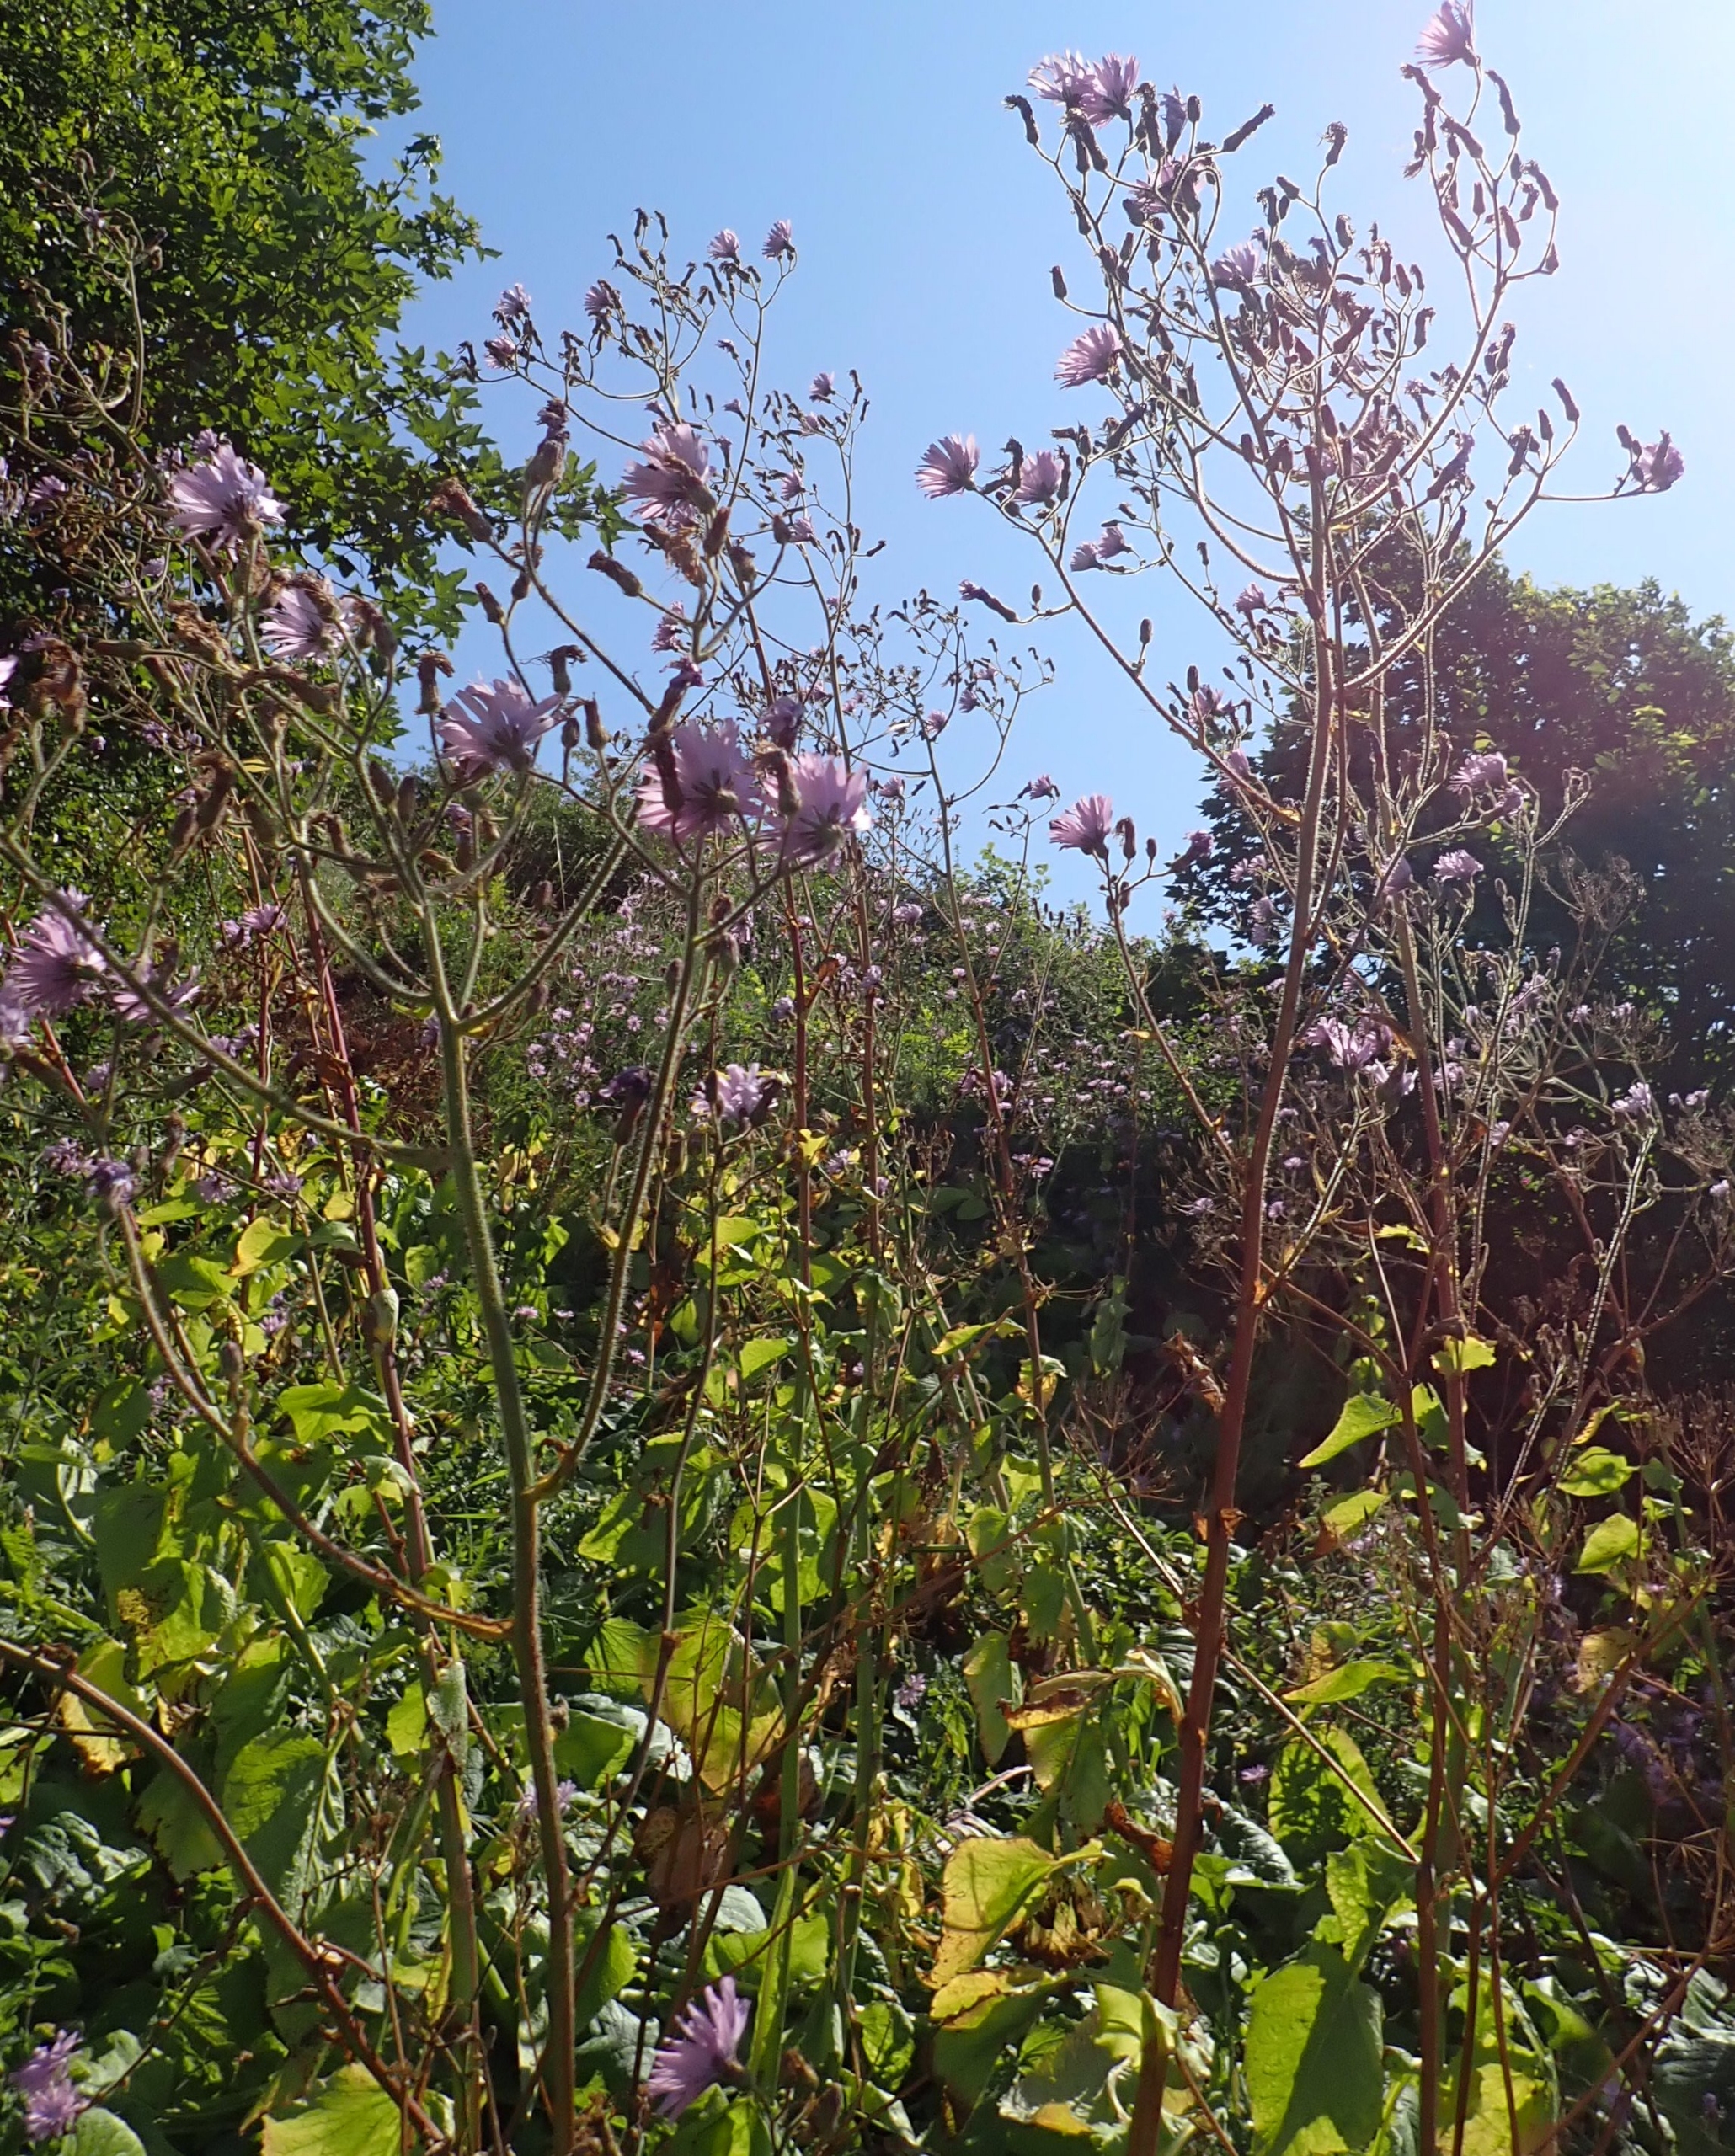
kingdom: Plantae
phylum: Tracheophyta
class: Magnoliopsida
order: Asterales
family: Asteraceae
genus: Lactuca
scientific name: Lactuca macrophylla
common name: Kæmpe-salat
